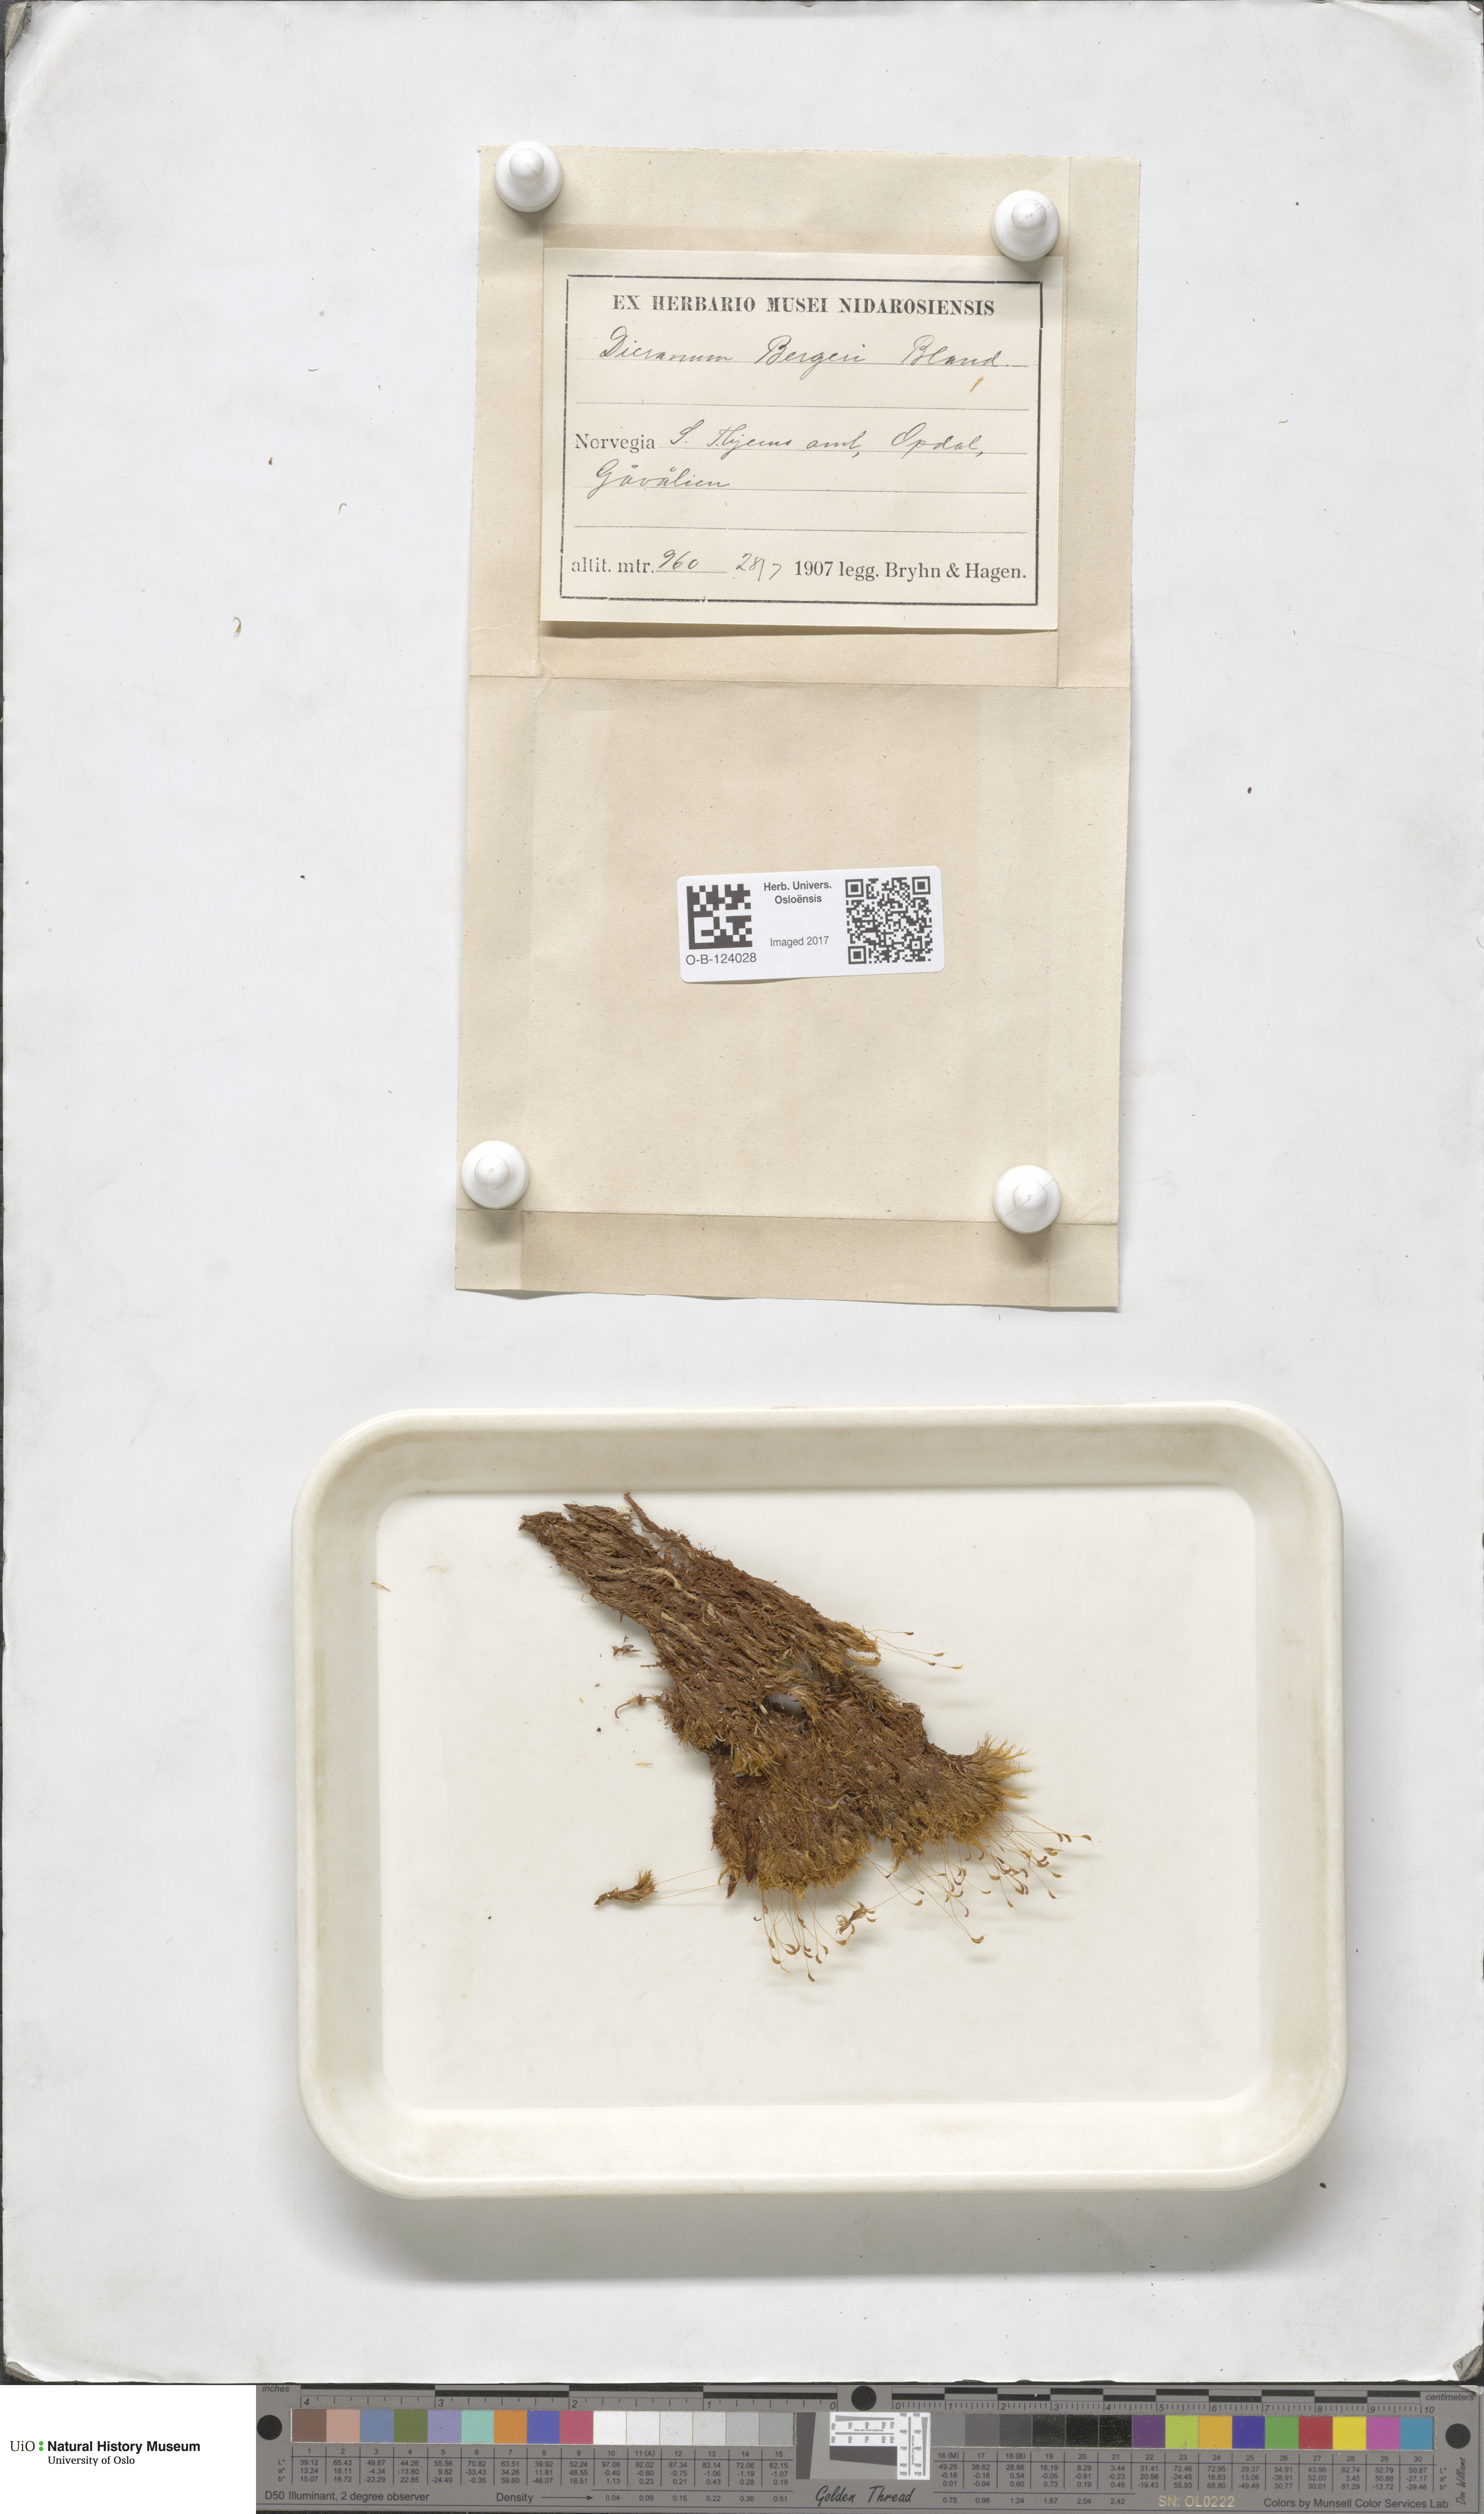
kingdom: Plantae
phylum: Bryophyta
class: Bryopsida
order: Dicranales
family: Dicranaceae
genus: Dicranum
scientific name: Dicranum undulatum
